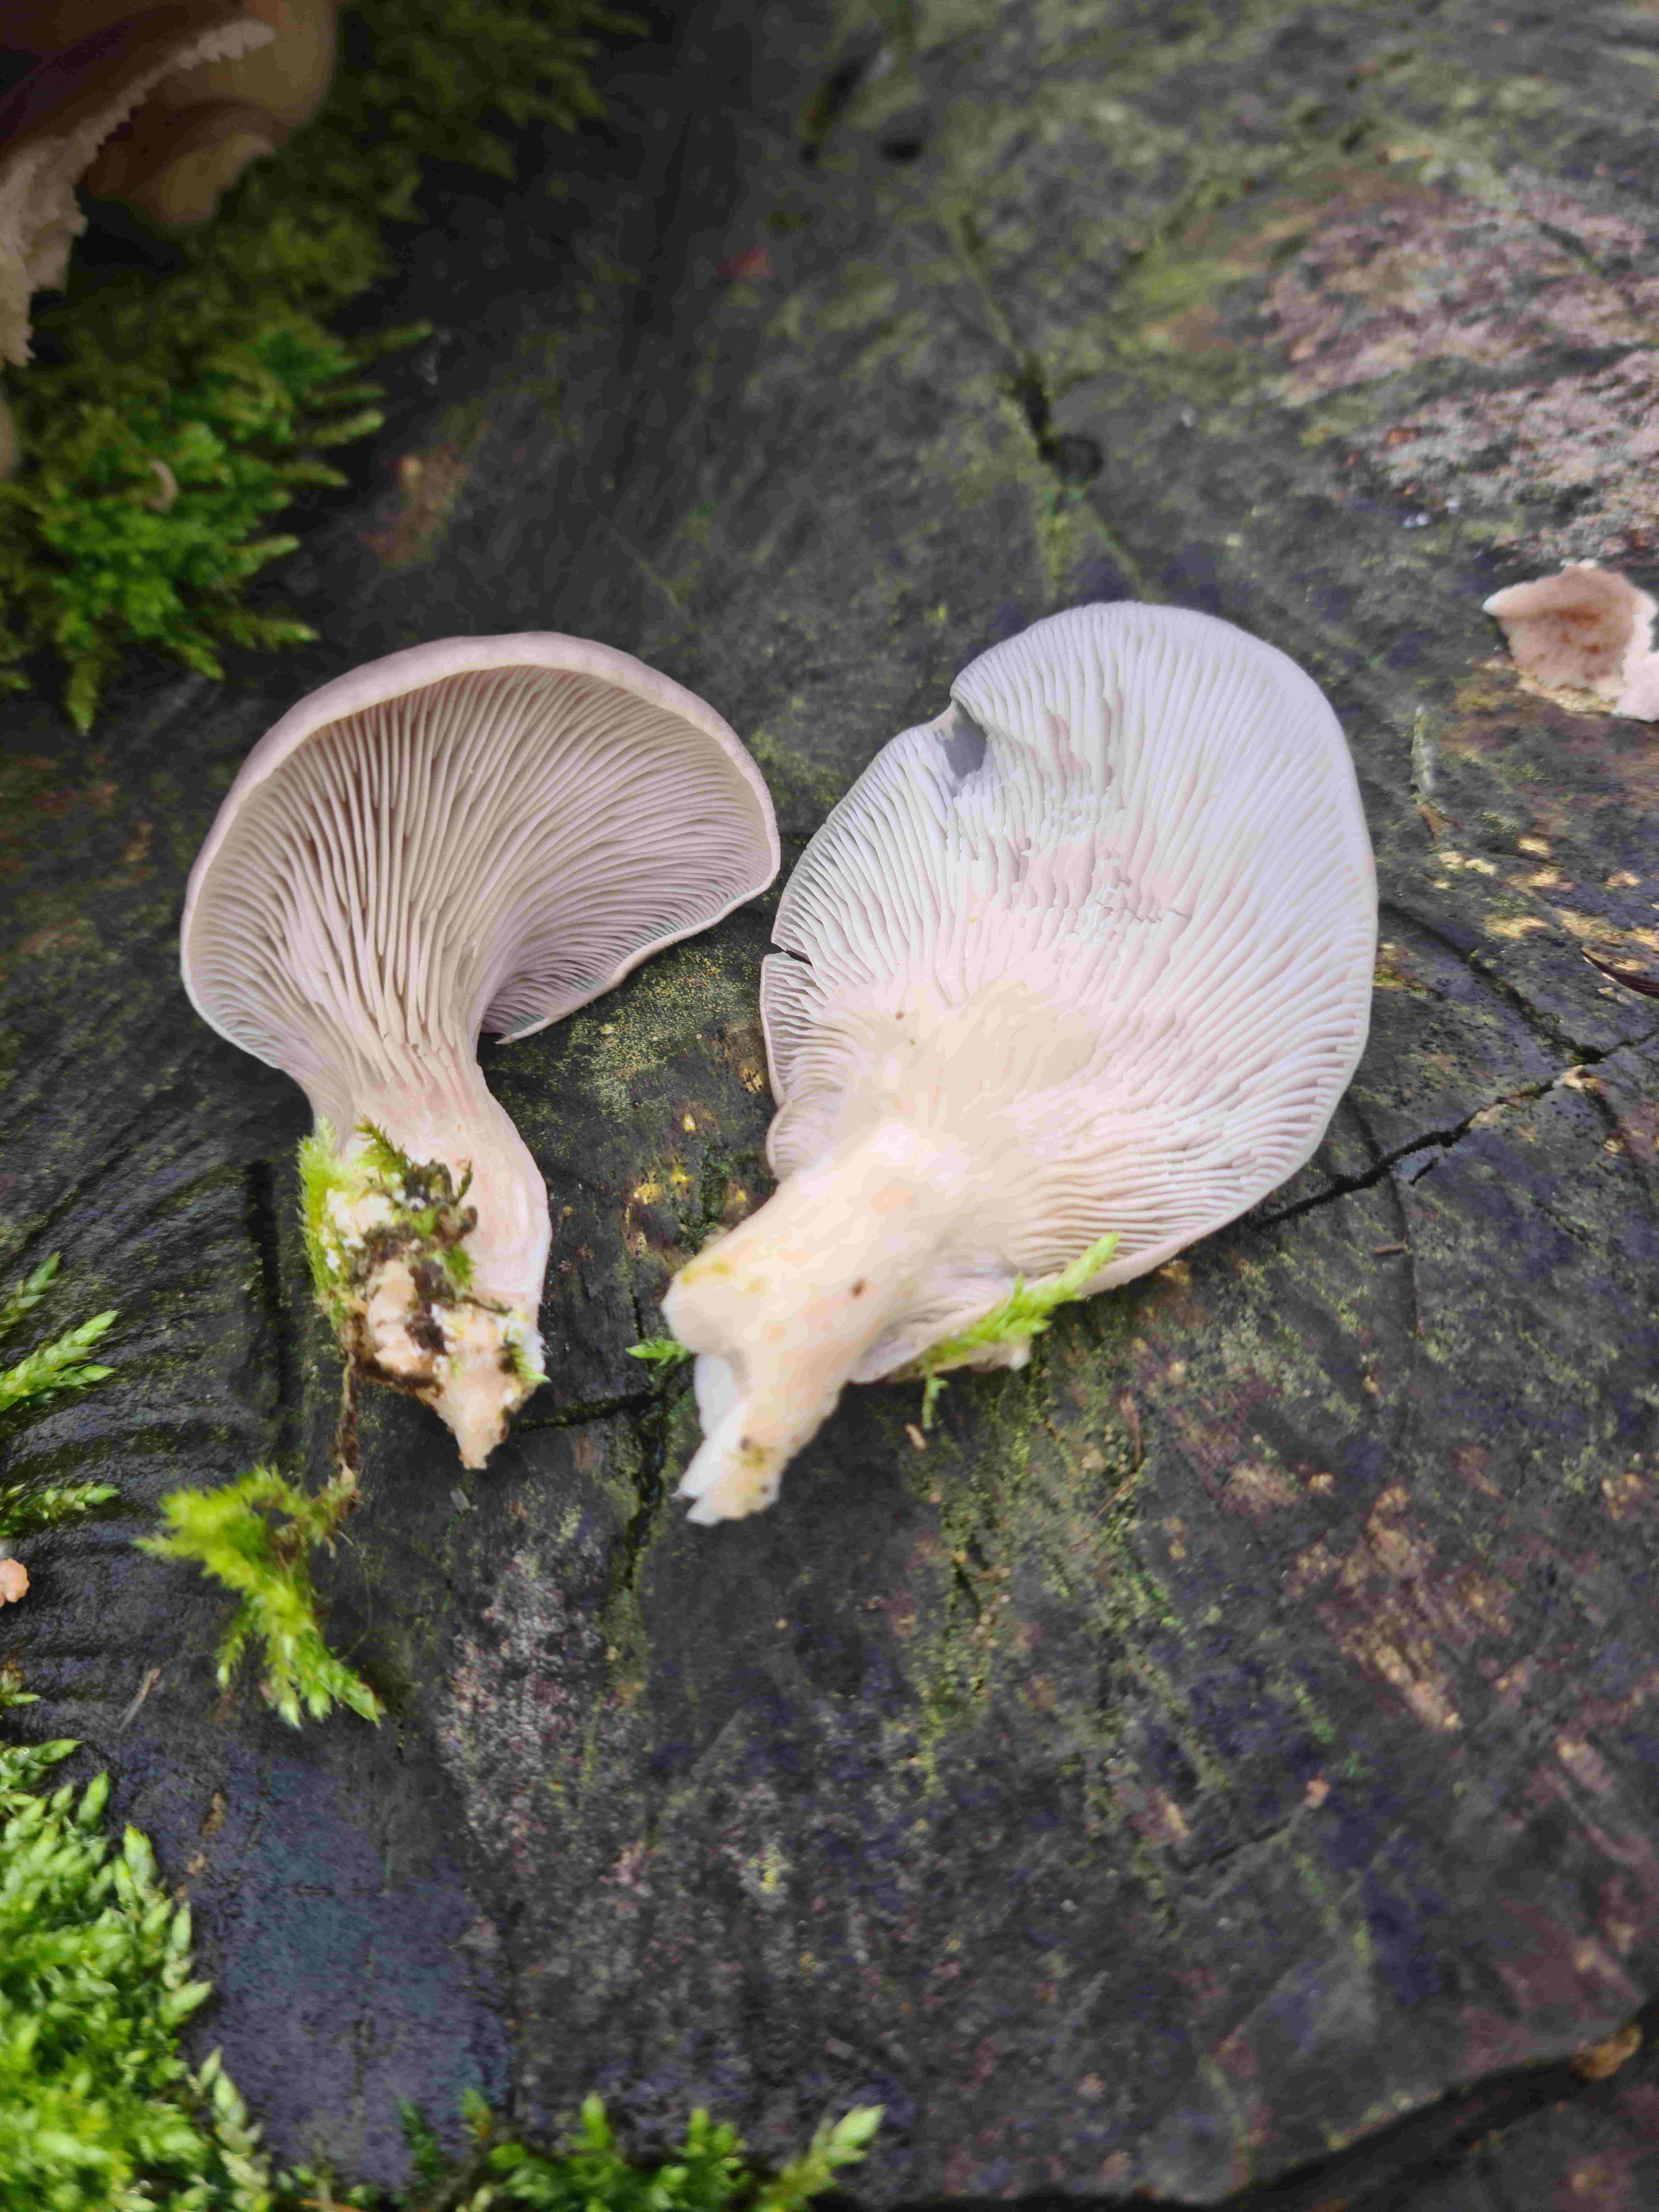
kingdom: Fungi
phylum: Basidiomycota
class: Agaricomycetes
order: Agaricales
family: Pleurotaceae
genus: Pleurotus
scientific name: Pleurotus ostreatus
